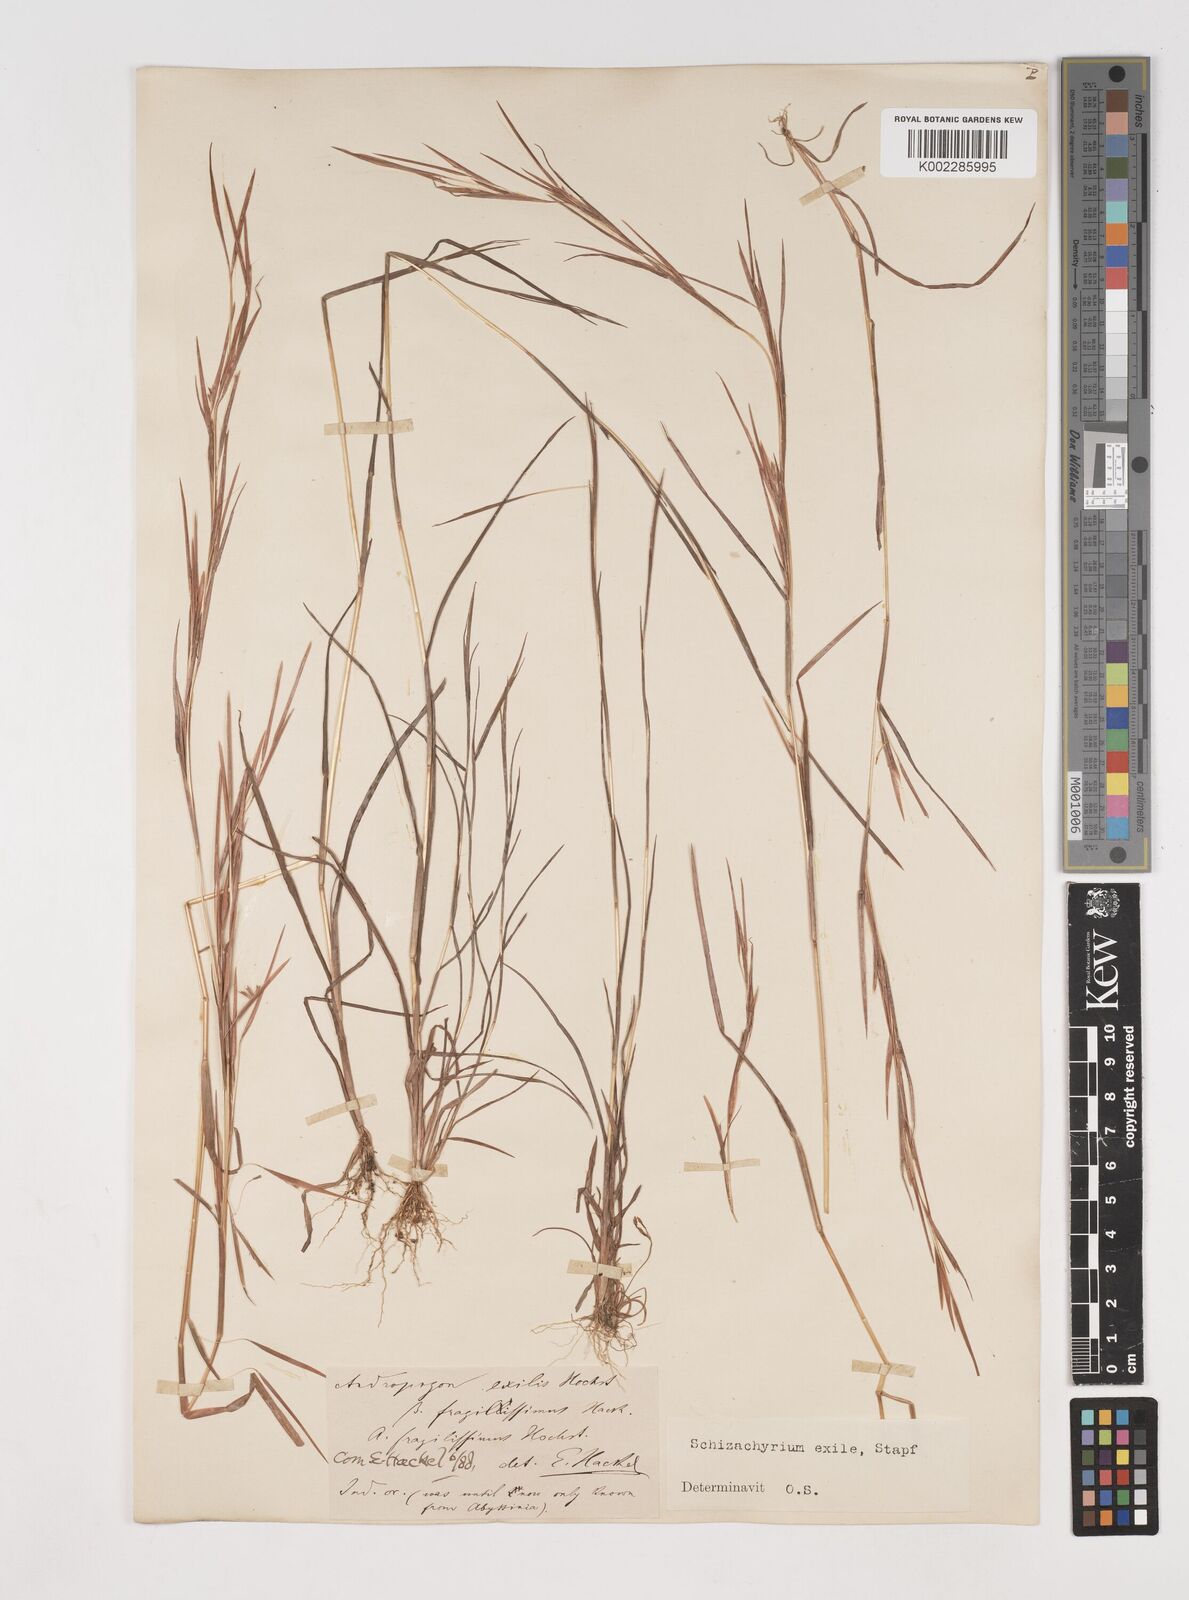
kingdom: Plantae
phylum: Tracheophyta
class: Liliopsida
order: Poales
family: Poaceae
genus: Schizachyrium
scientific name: Schizachyrium exile
